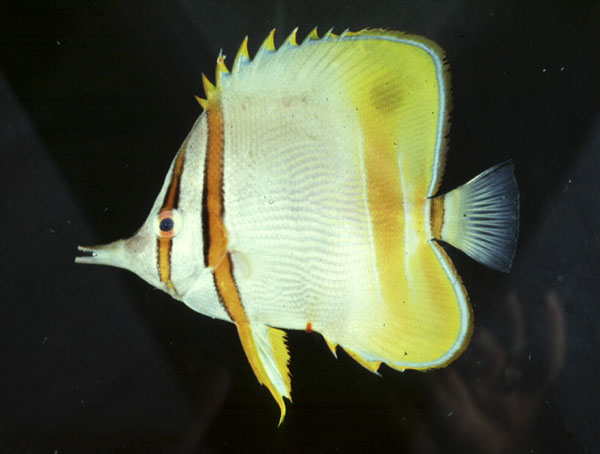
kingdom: Animalia
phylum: Chordata
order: Perciformes
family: Chaetodontidae
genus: Chelmon
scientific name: Chelmon marginalis
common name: Margined coralfish
